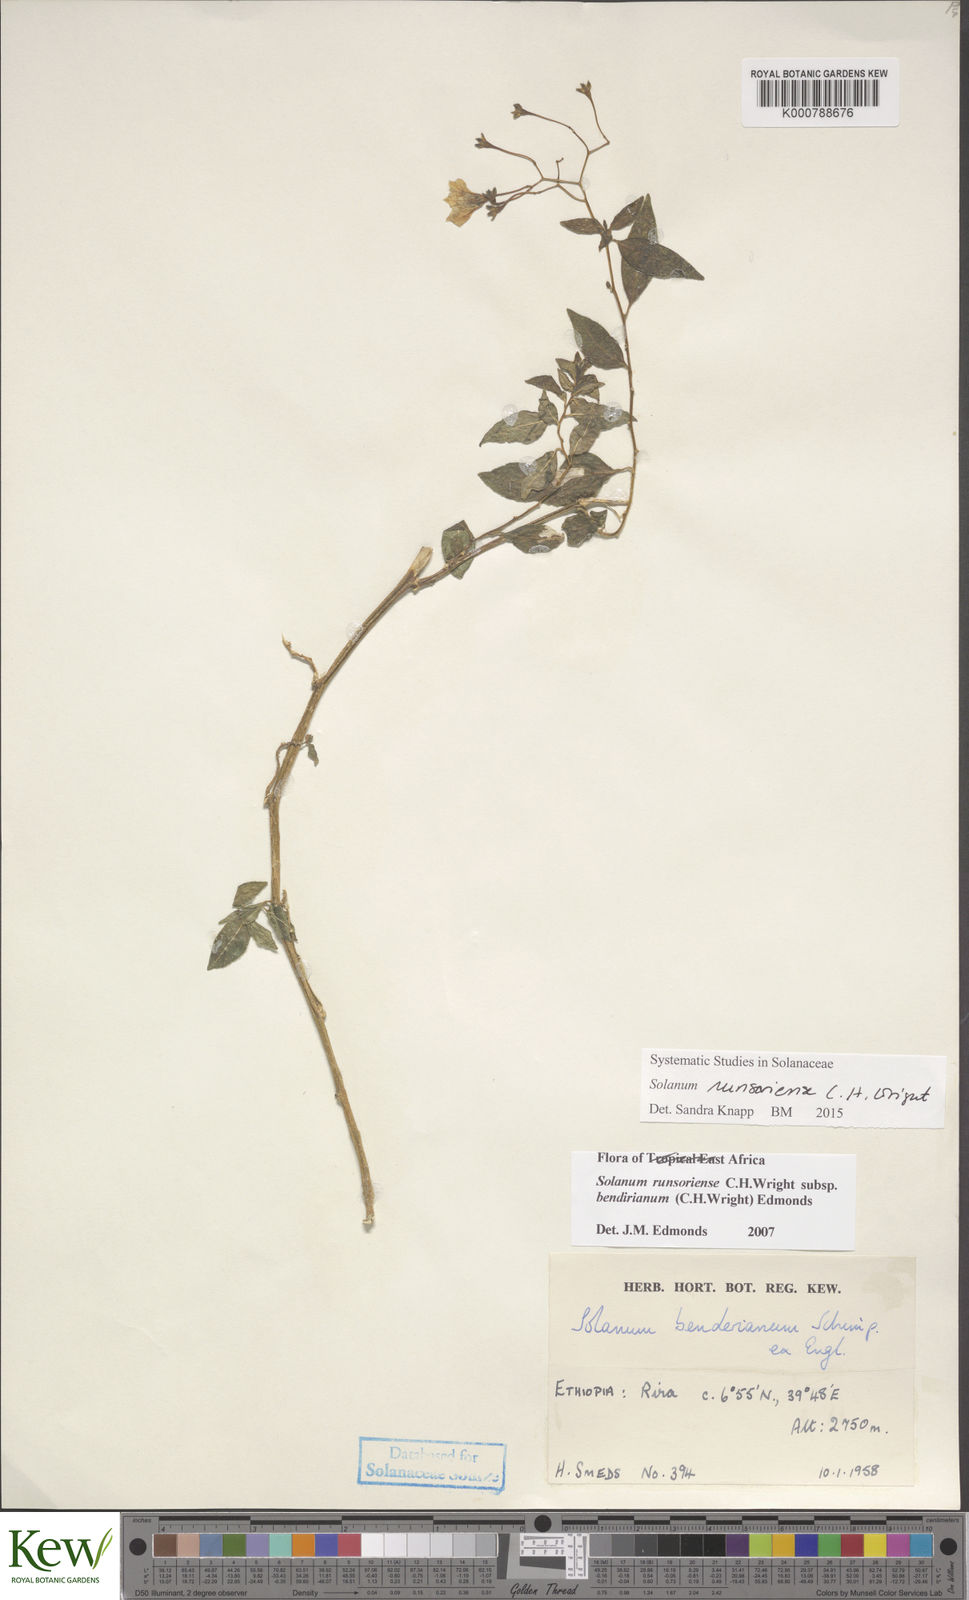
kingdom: Plantae
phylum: Tracheophyta
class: Magnoliopsida
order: Solanales
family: Solanaceae
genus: Solanum
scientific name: Solanum runsoriense
